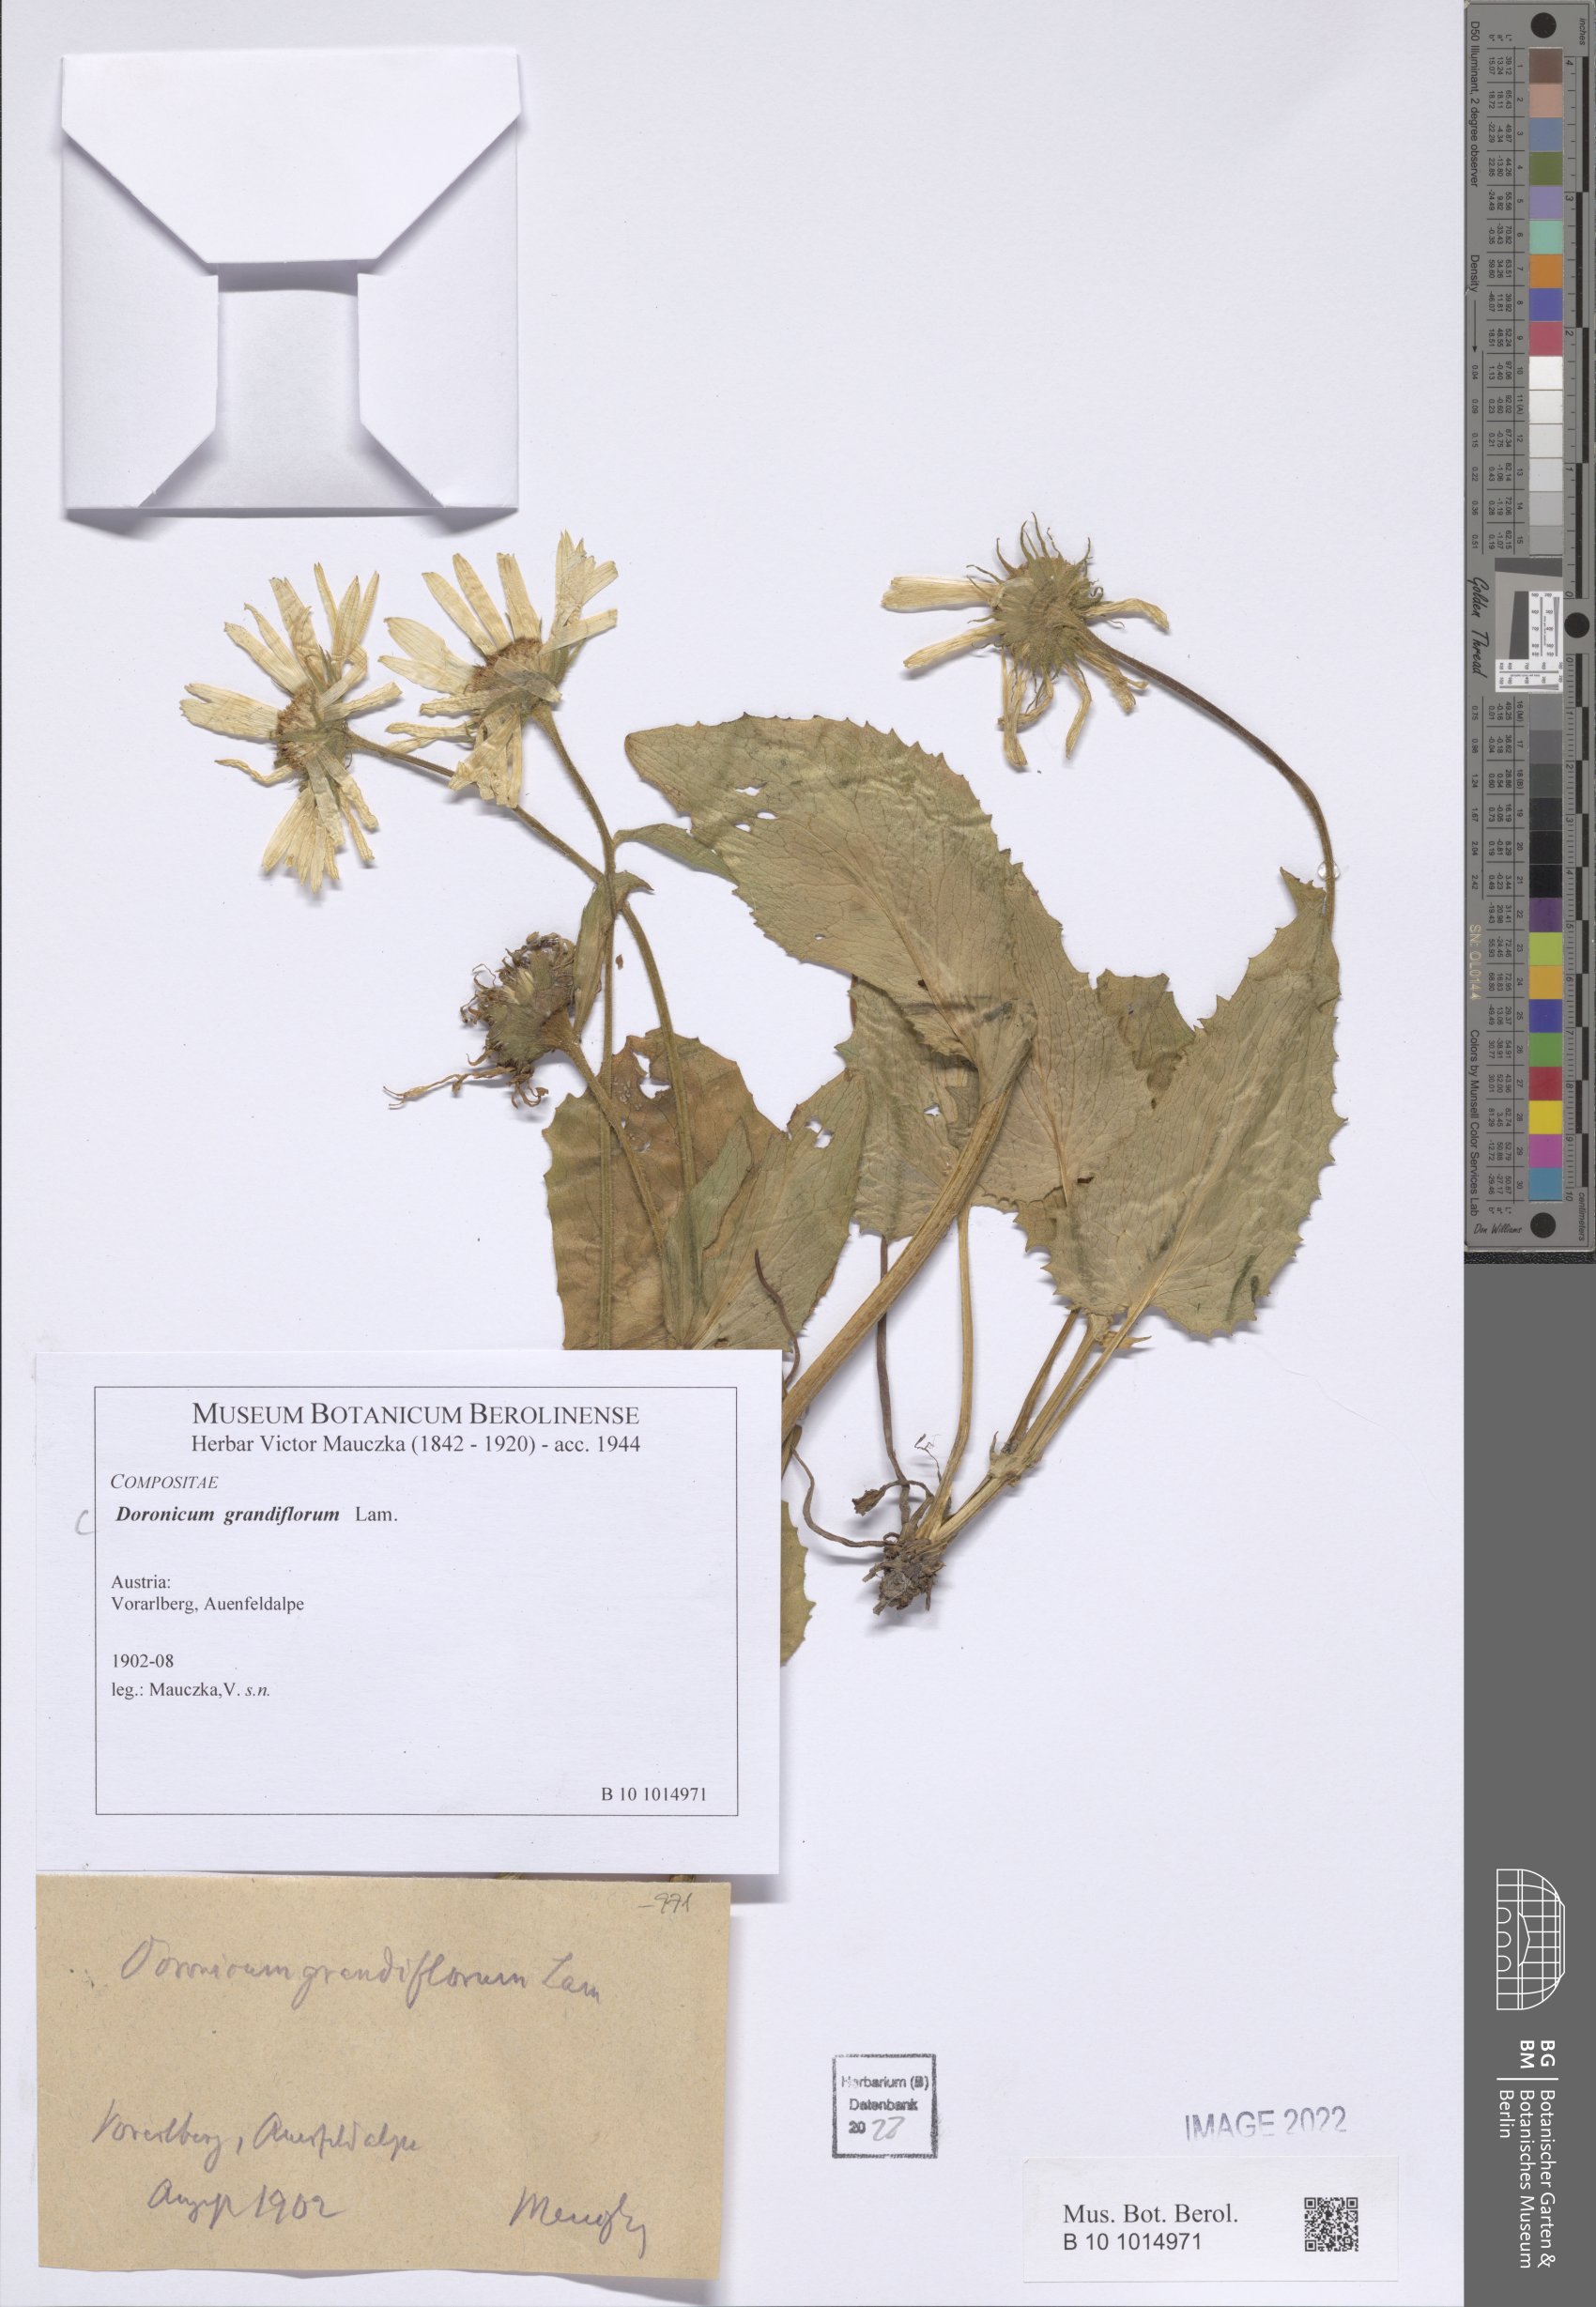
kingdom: Plantae
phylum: Tracheophyta
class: Magnoliopsida
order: Asterales
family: Asteraceae
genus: Doronicum
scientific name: Doronicum grandiflorum
